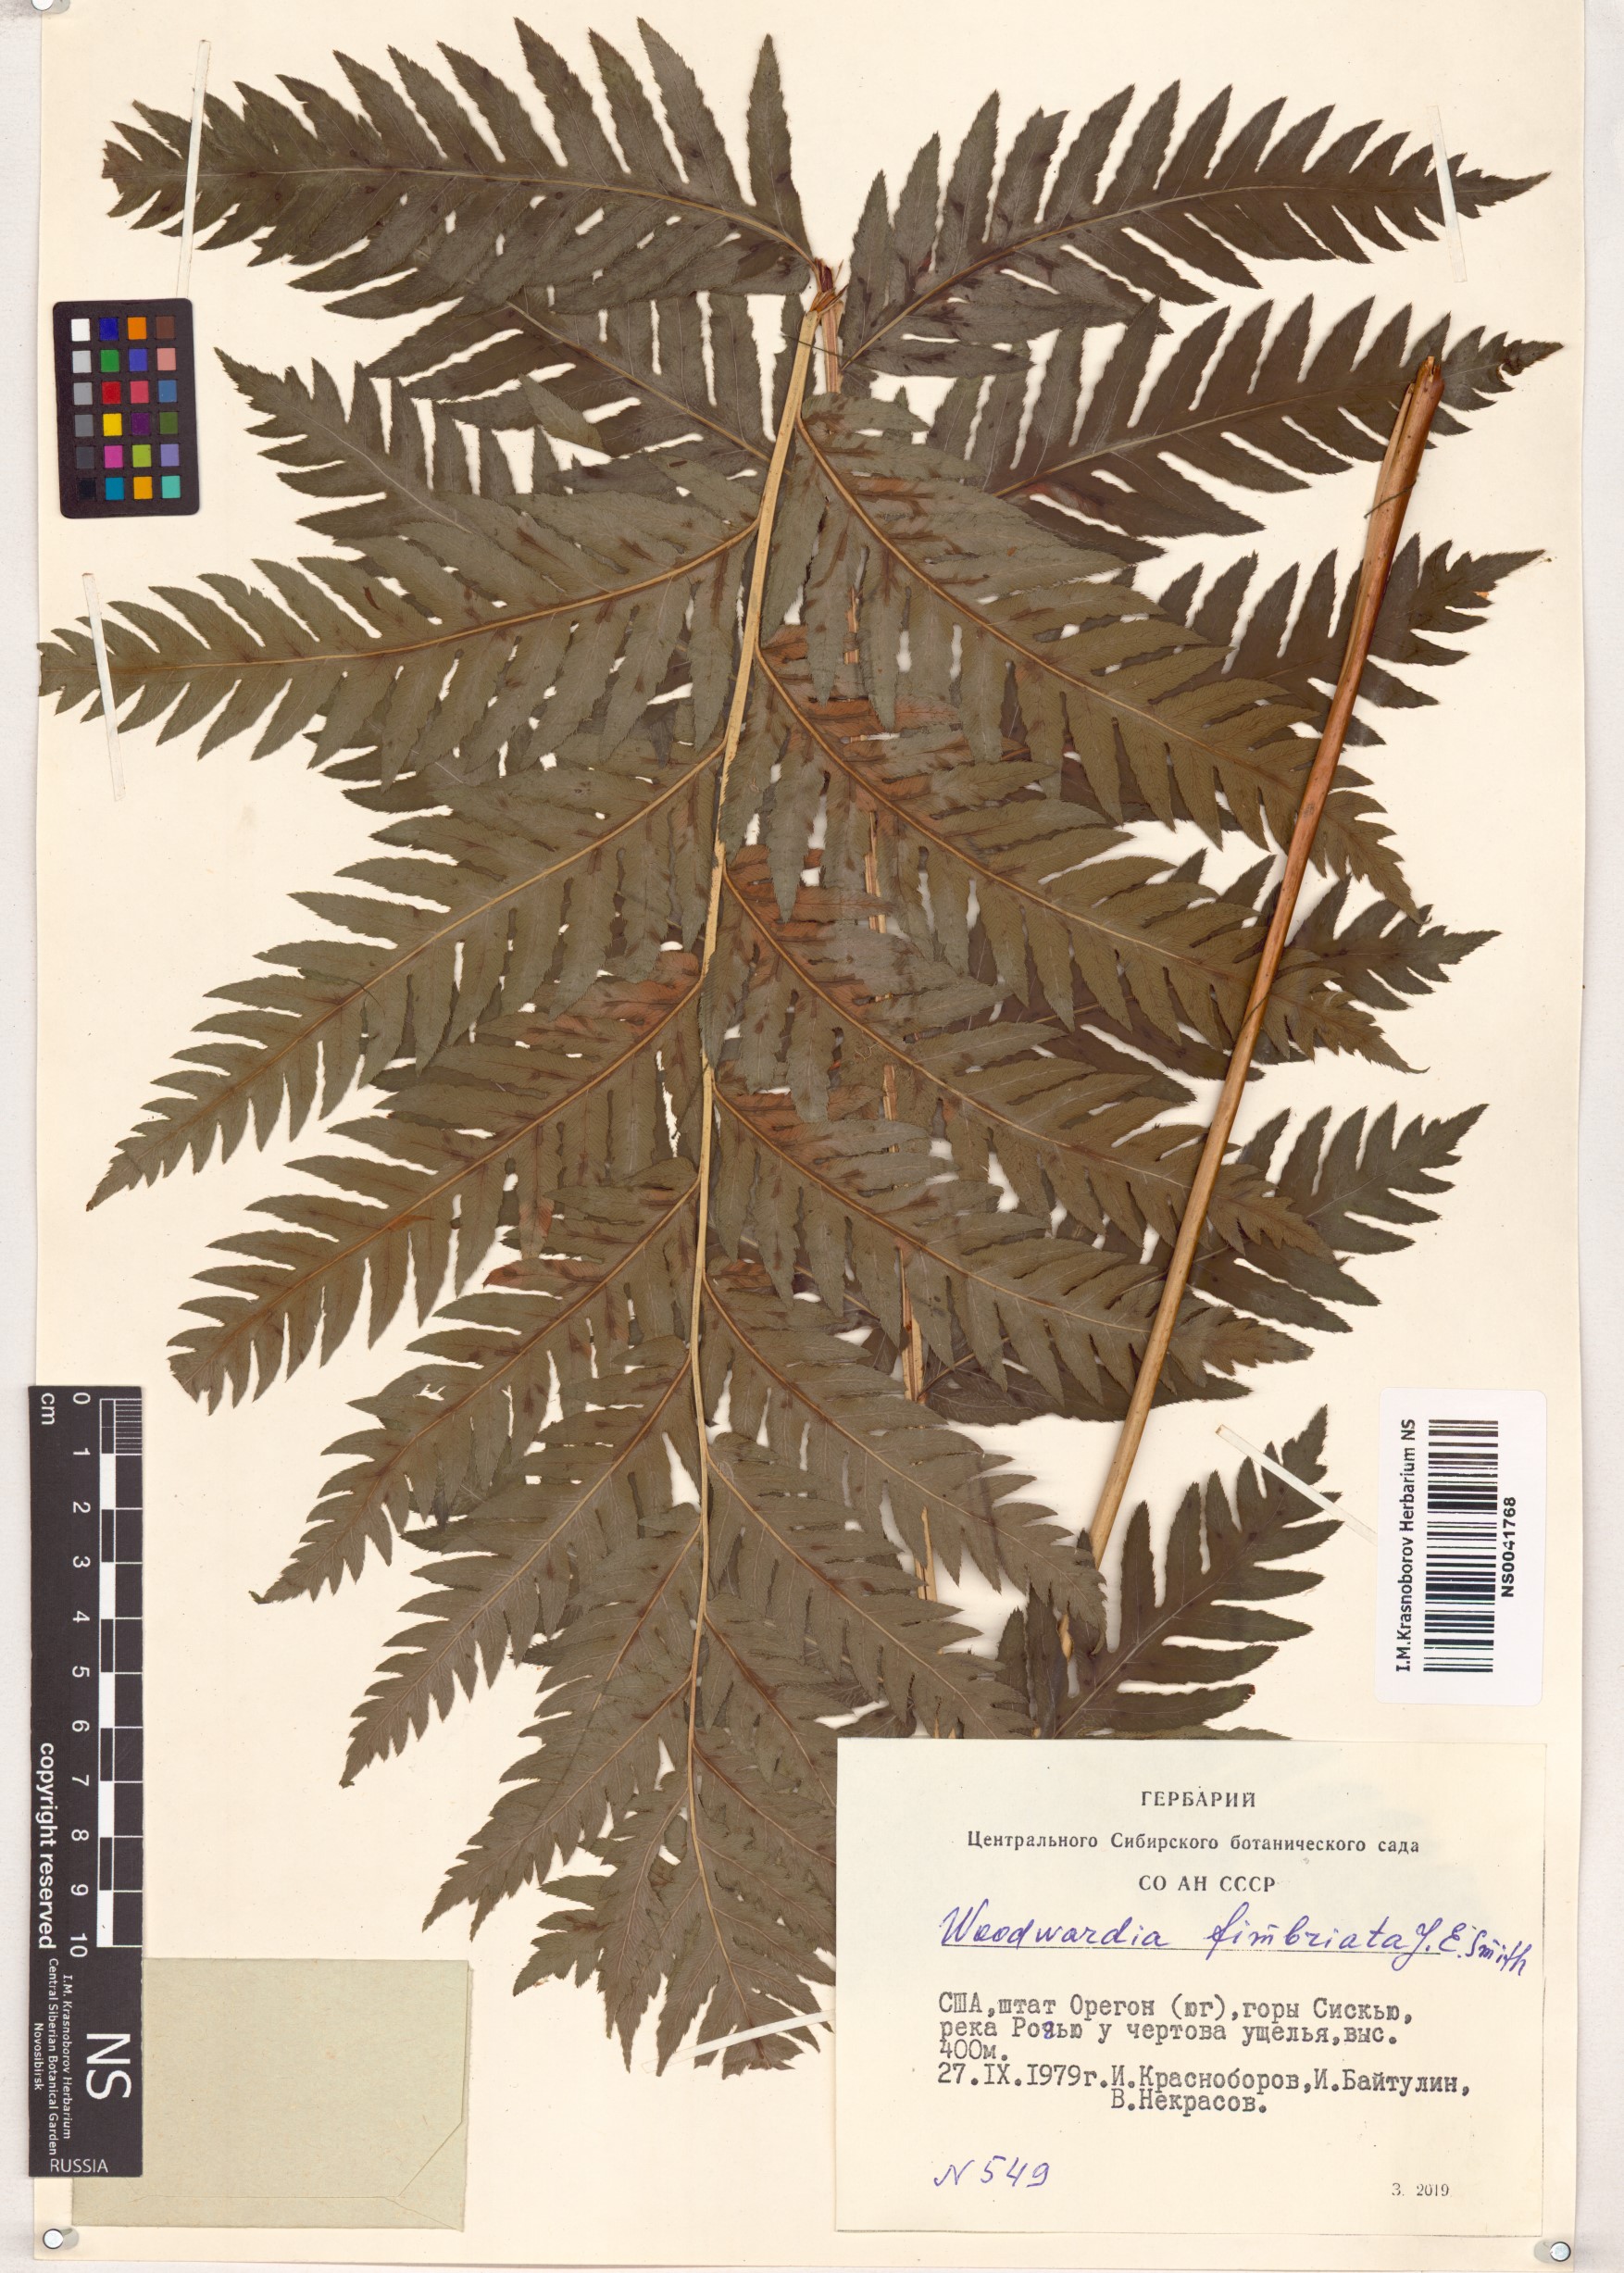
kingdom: Plantae
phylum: Tracheophyta
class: Polypodiopsida
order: Polypodiales
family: Blechnaceae
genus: Woodwardia
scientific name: Woodwardia fimbriata
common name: Giant chain fern
